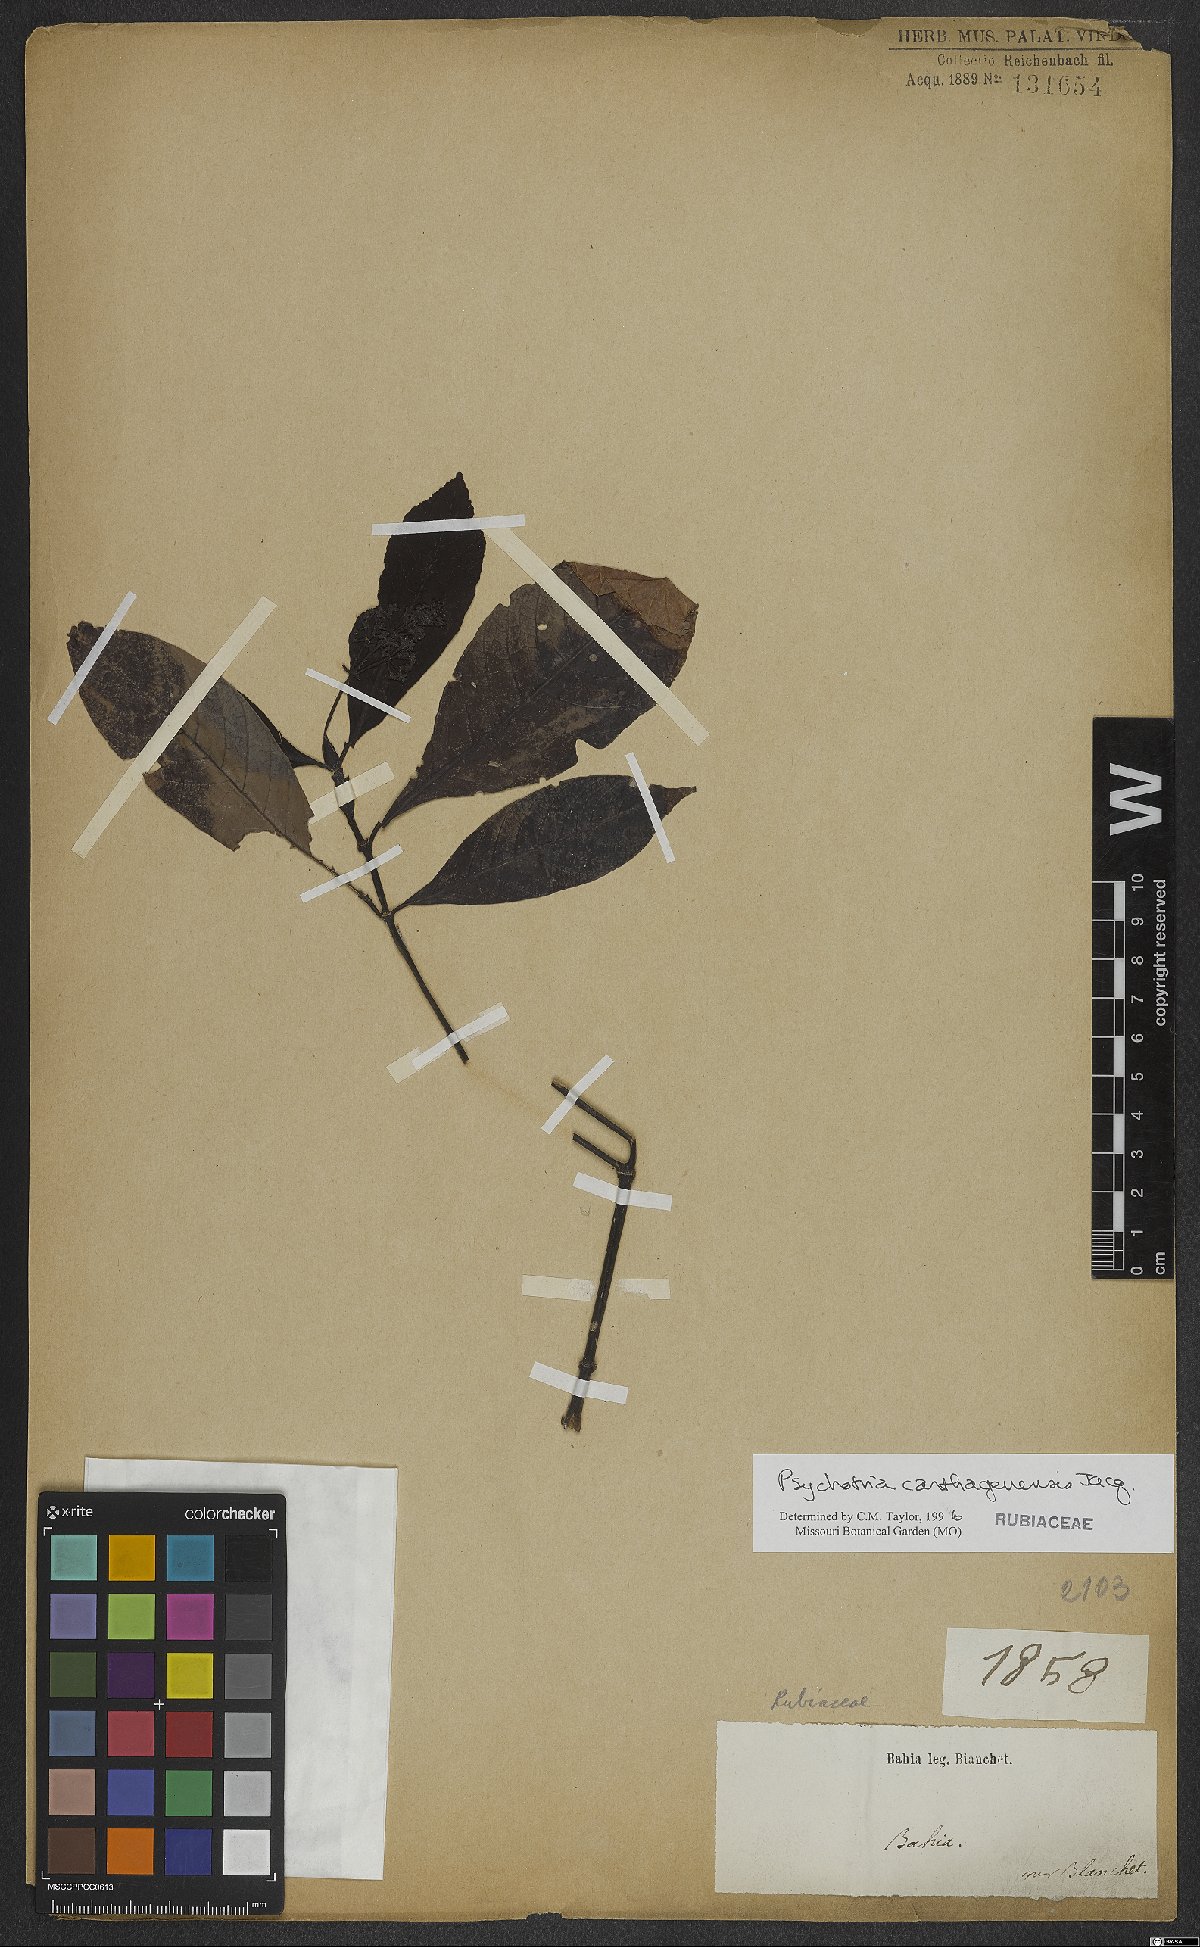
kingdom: Plantae
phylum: Tracheophyta
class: Magnoliopsida
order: Gentianales
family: Rubiaceae
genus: Psychotria
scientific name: Psychotria carthagenensis
